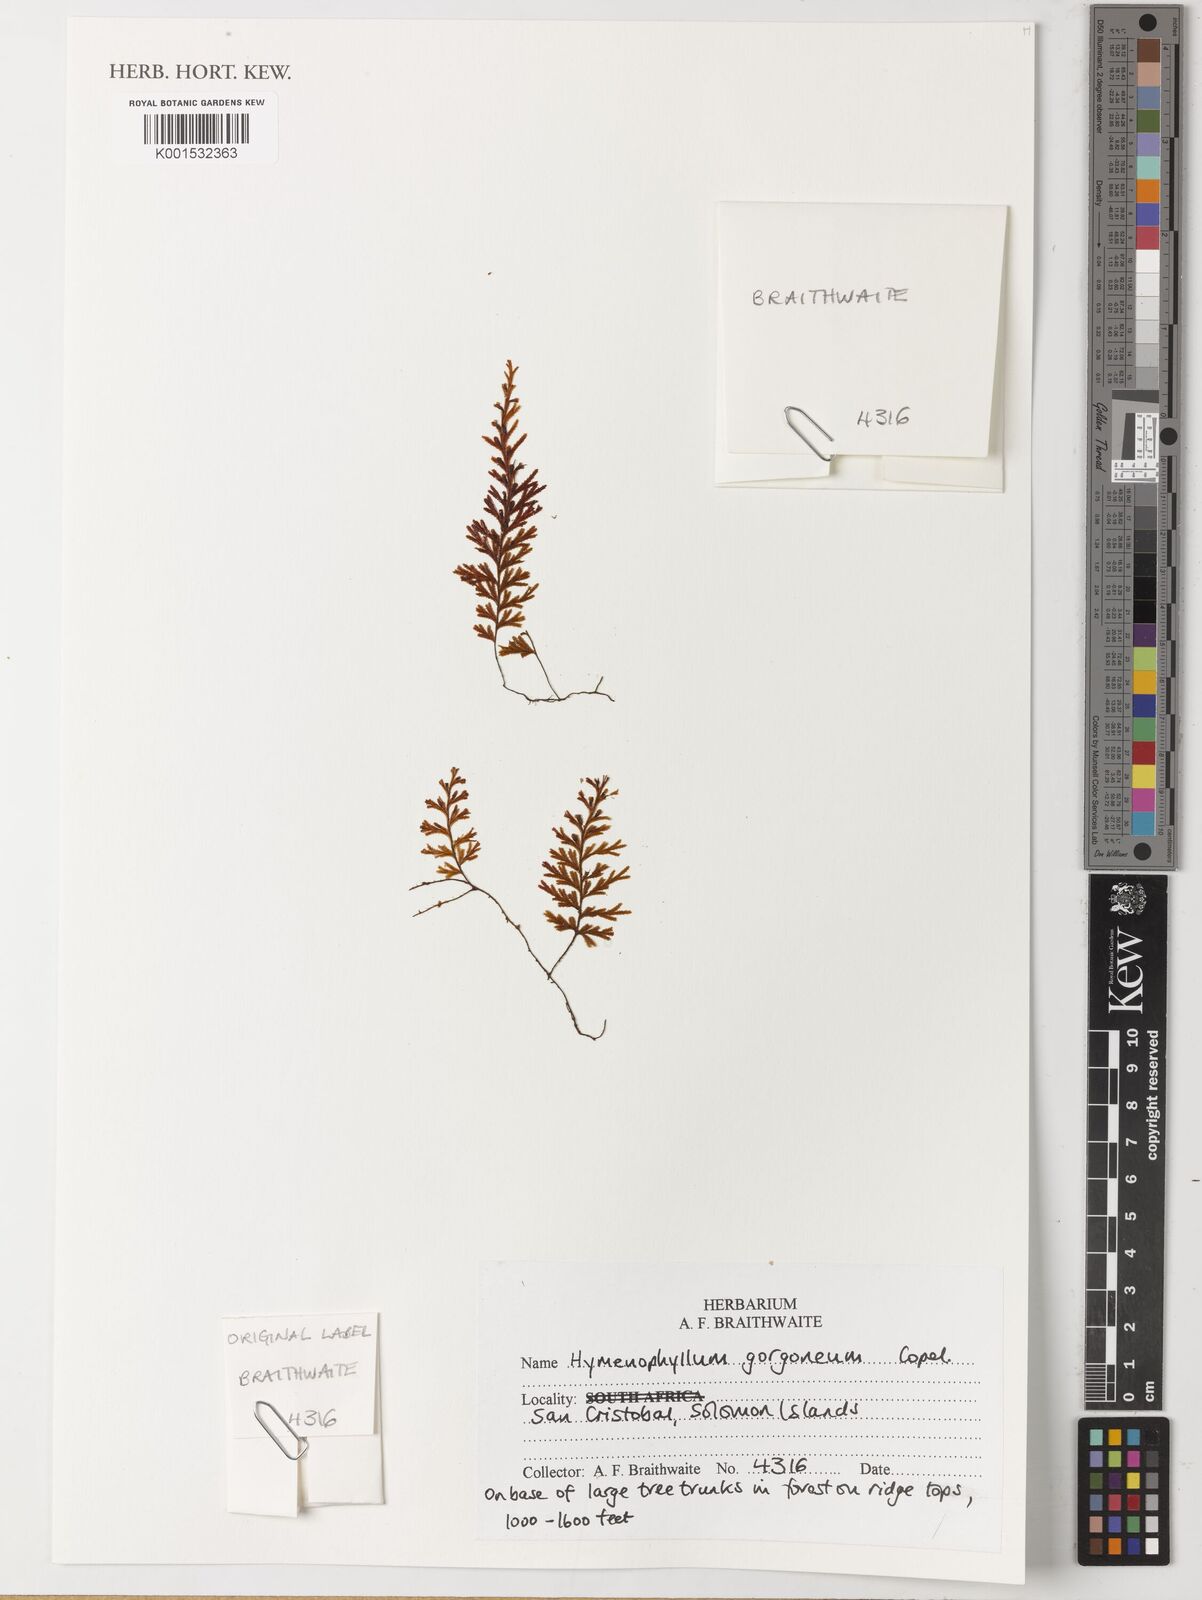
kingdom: Plantae
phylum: Tracheophyta
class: Polypodiopsida
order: Hymenophyllales
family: Hymenophyllaceae
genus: Hymenophyllum
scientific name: Hymenophyllum gorgoneum
